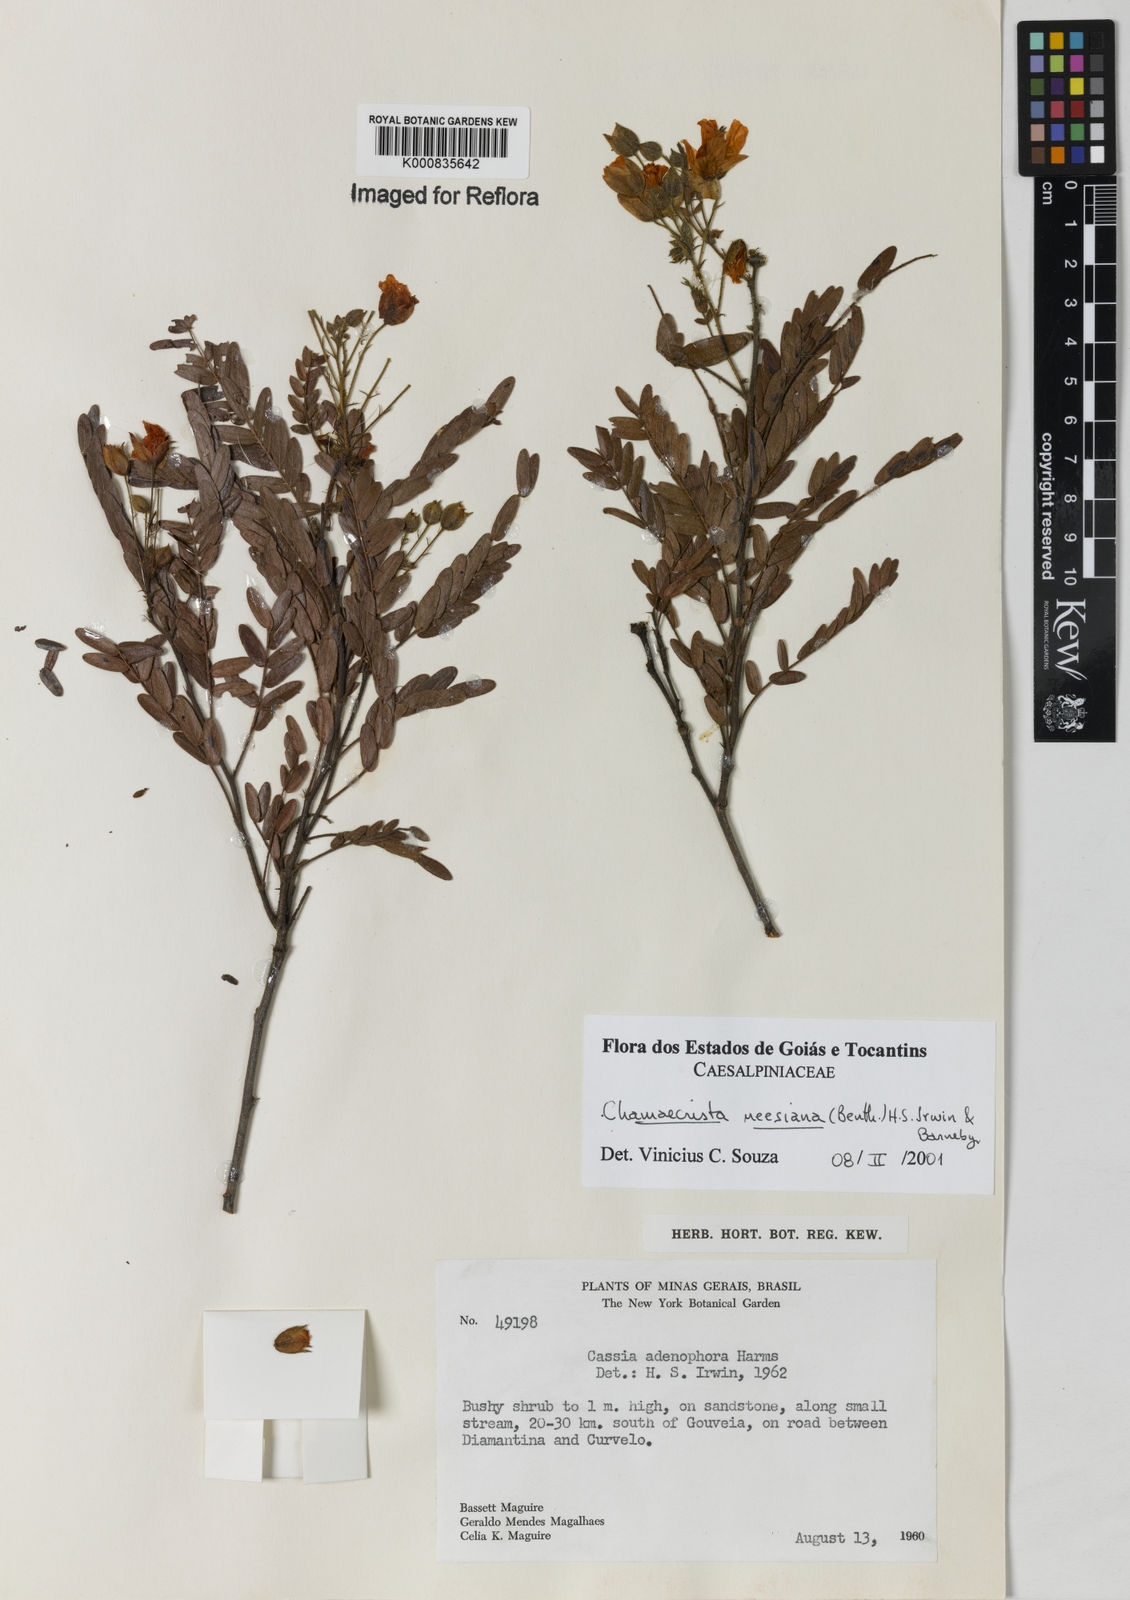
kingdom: Plantae
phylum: Tracheophyta
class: Magnoliopsida
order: Fabales
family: Fabaceae
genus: Chamaecrista
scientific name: Chamaecrista neesiana
